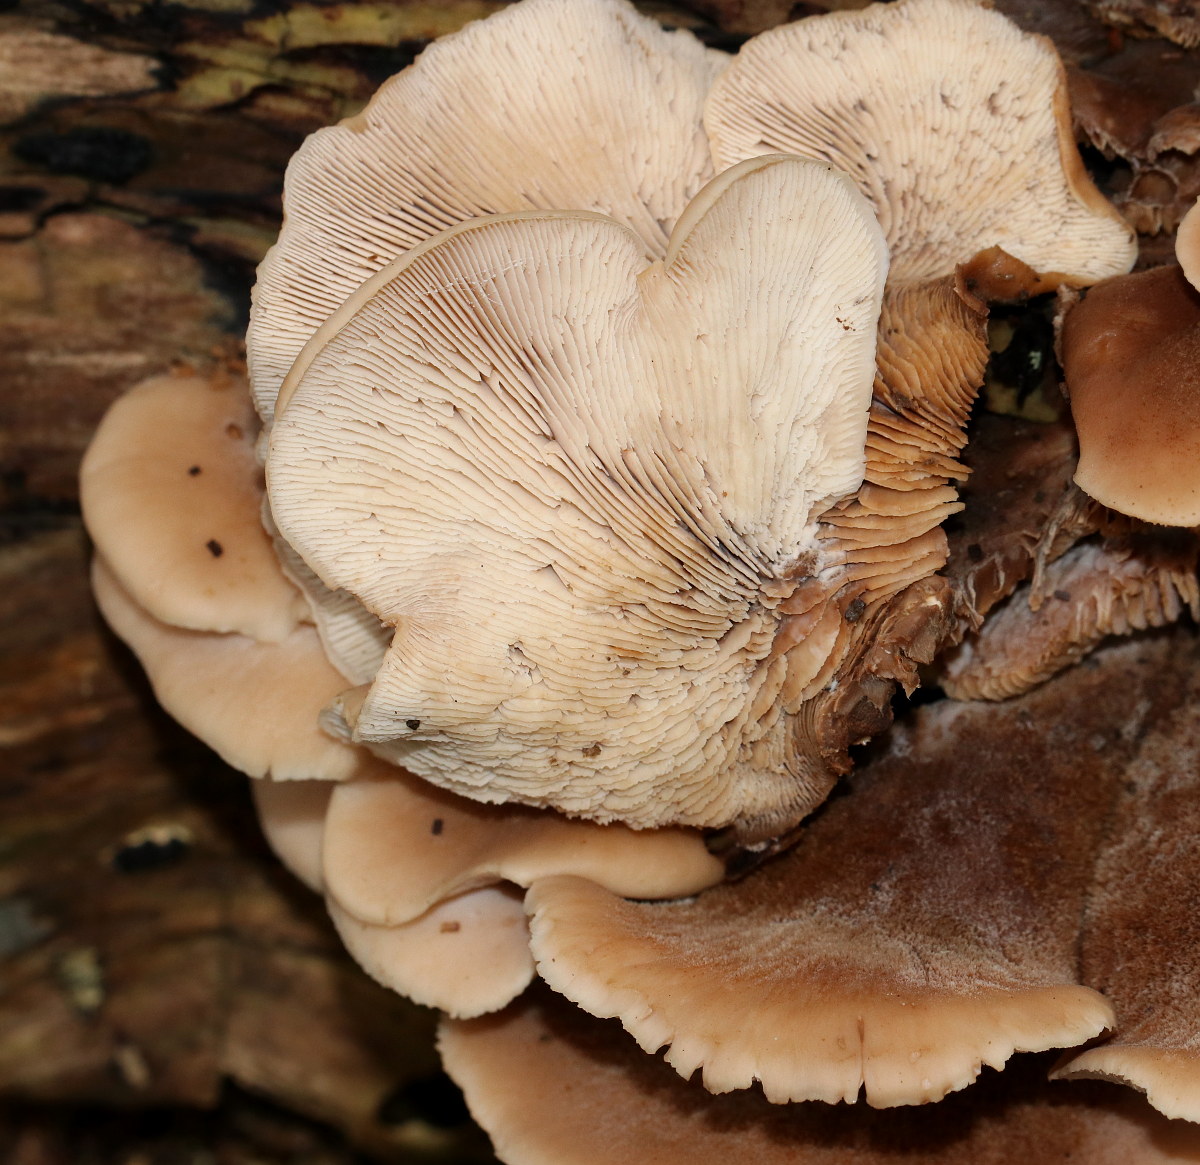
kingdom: Fungi
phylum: Basidiomycota
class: Agaricomycetes
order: Russulales
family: Auriscalpiaceae
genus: Lentinellus
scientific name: Lentinellus ursinus
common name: børstehåret savbladhat
